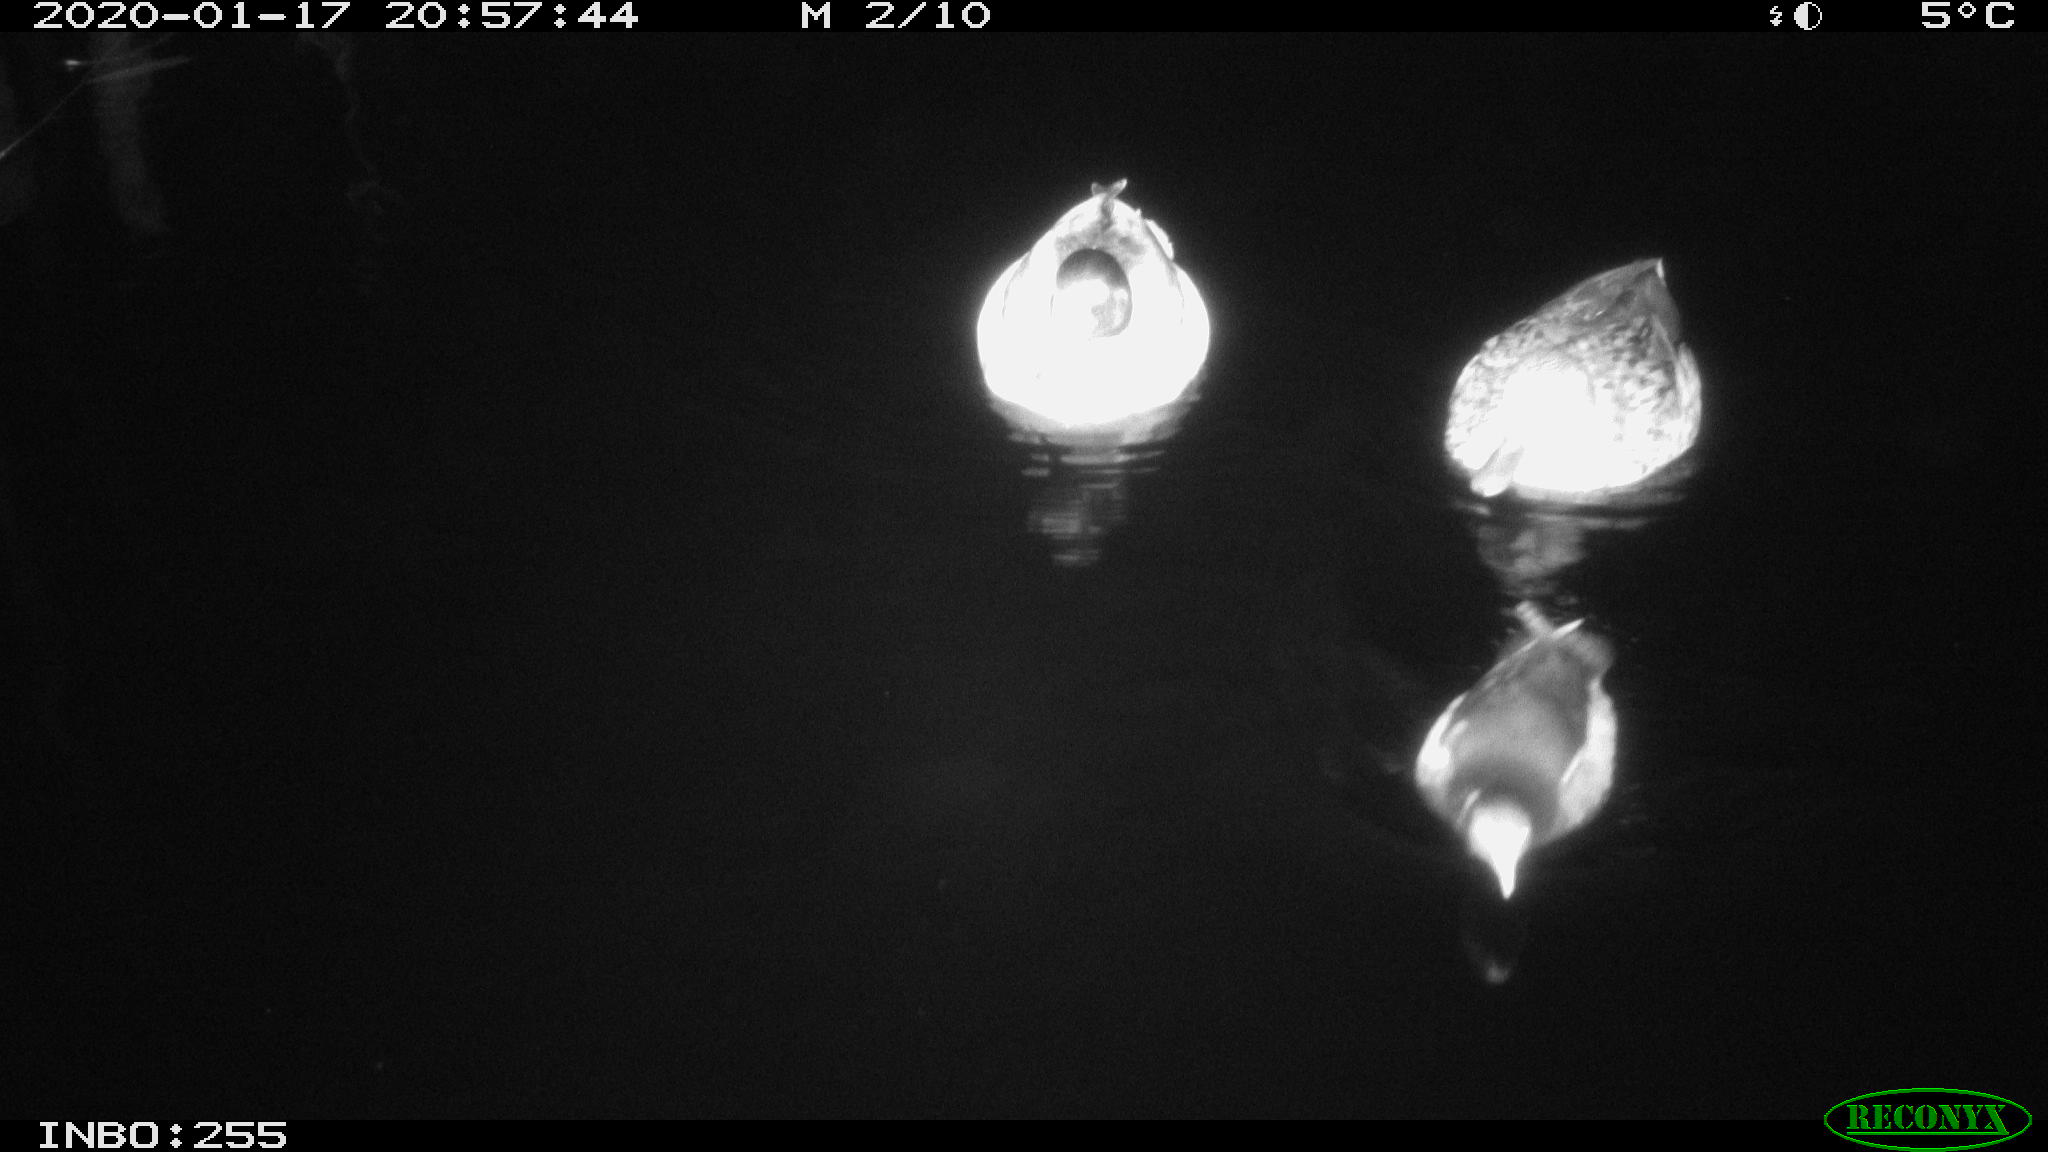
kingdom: Animalia
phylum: Chordata
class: Aves
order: Anseriformes
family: Anatidae
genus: Anas
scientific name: Anas platyrhynchos
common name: Mallard
